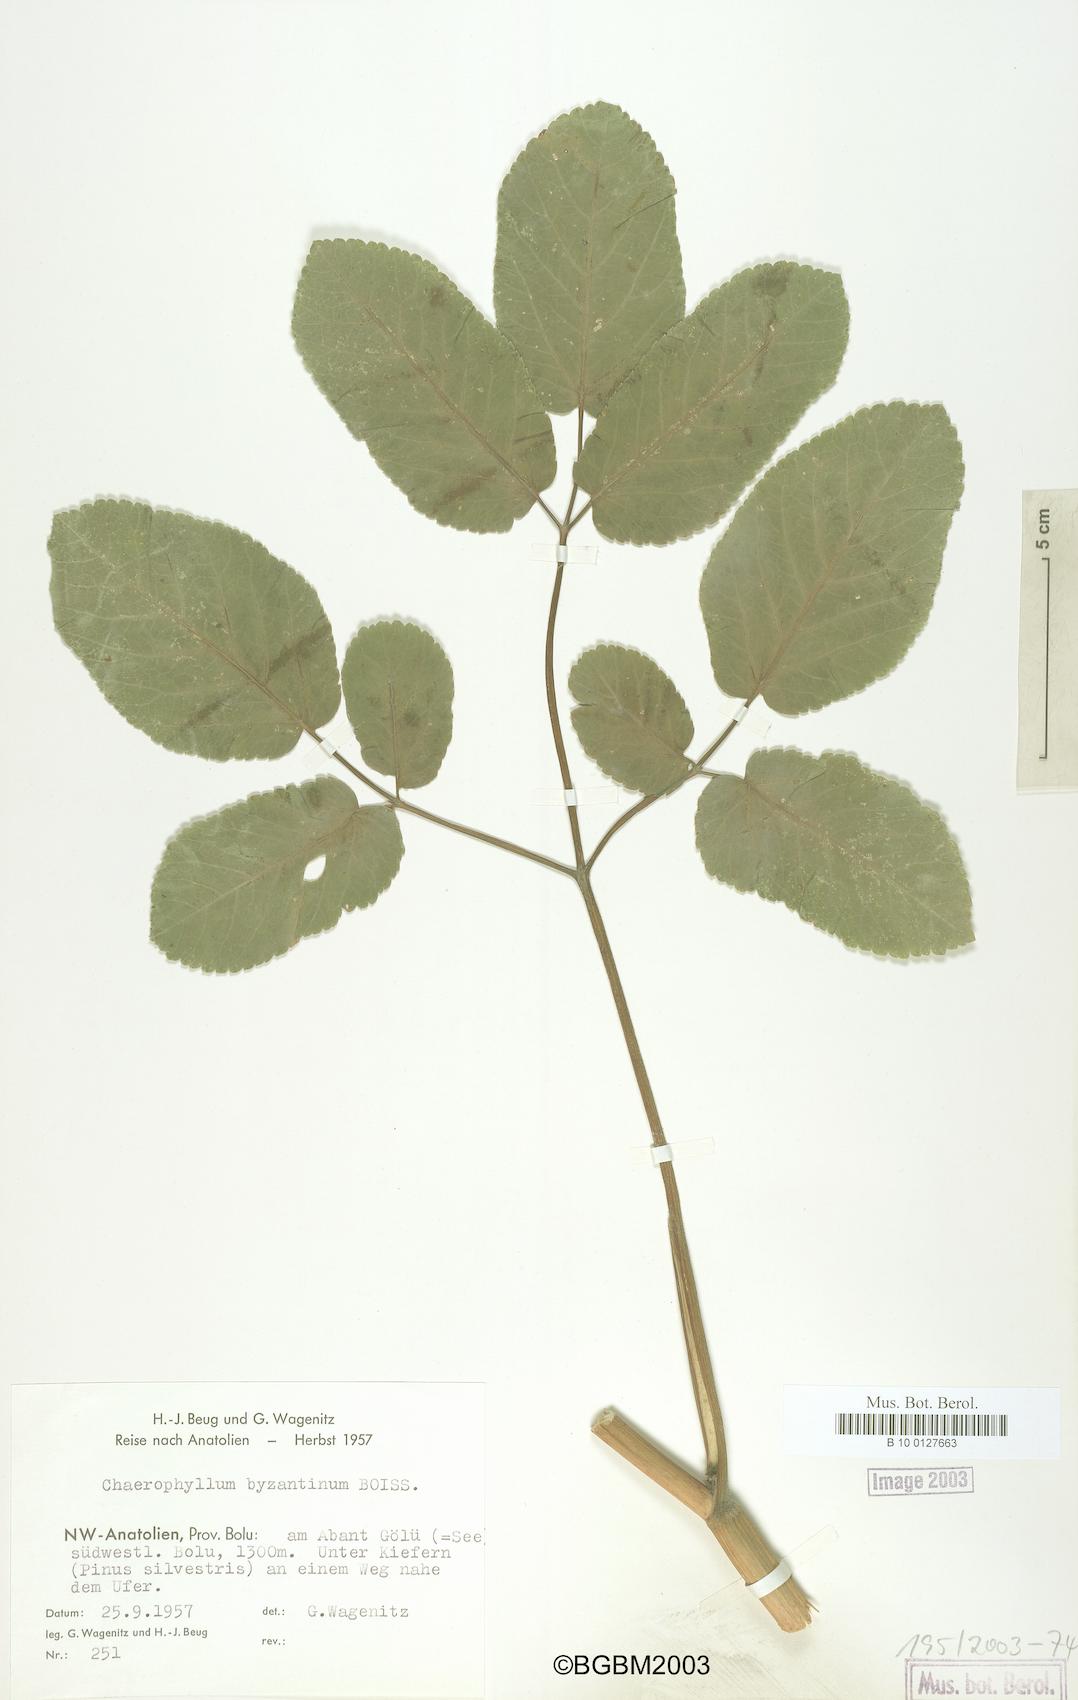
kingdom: Plantae
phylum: Tracheophyta
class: Magnoliopsida
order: Apiales
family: Apiaceae
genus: Chaerophyllum
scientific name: Chaerophyllum byzantinum
